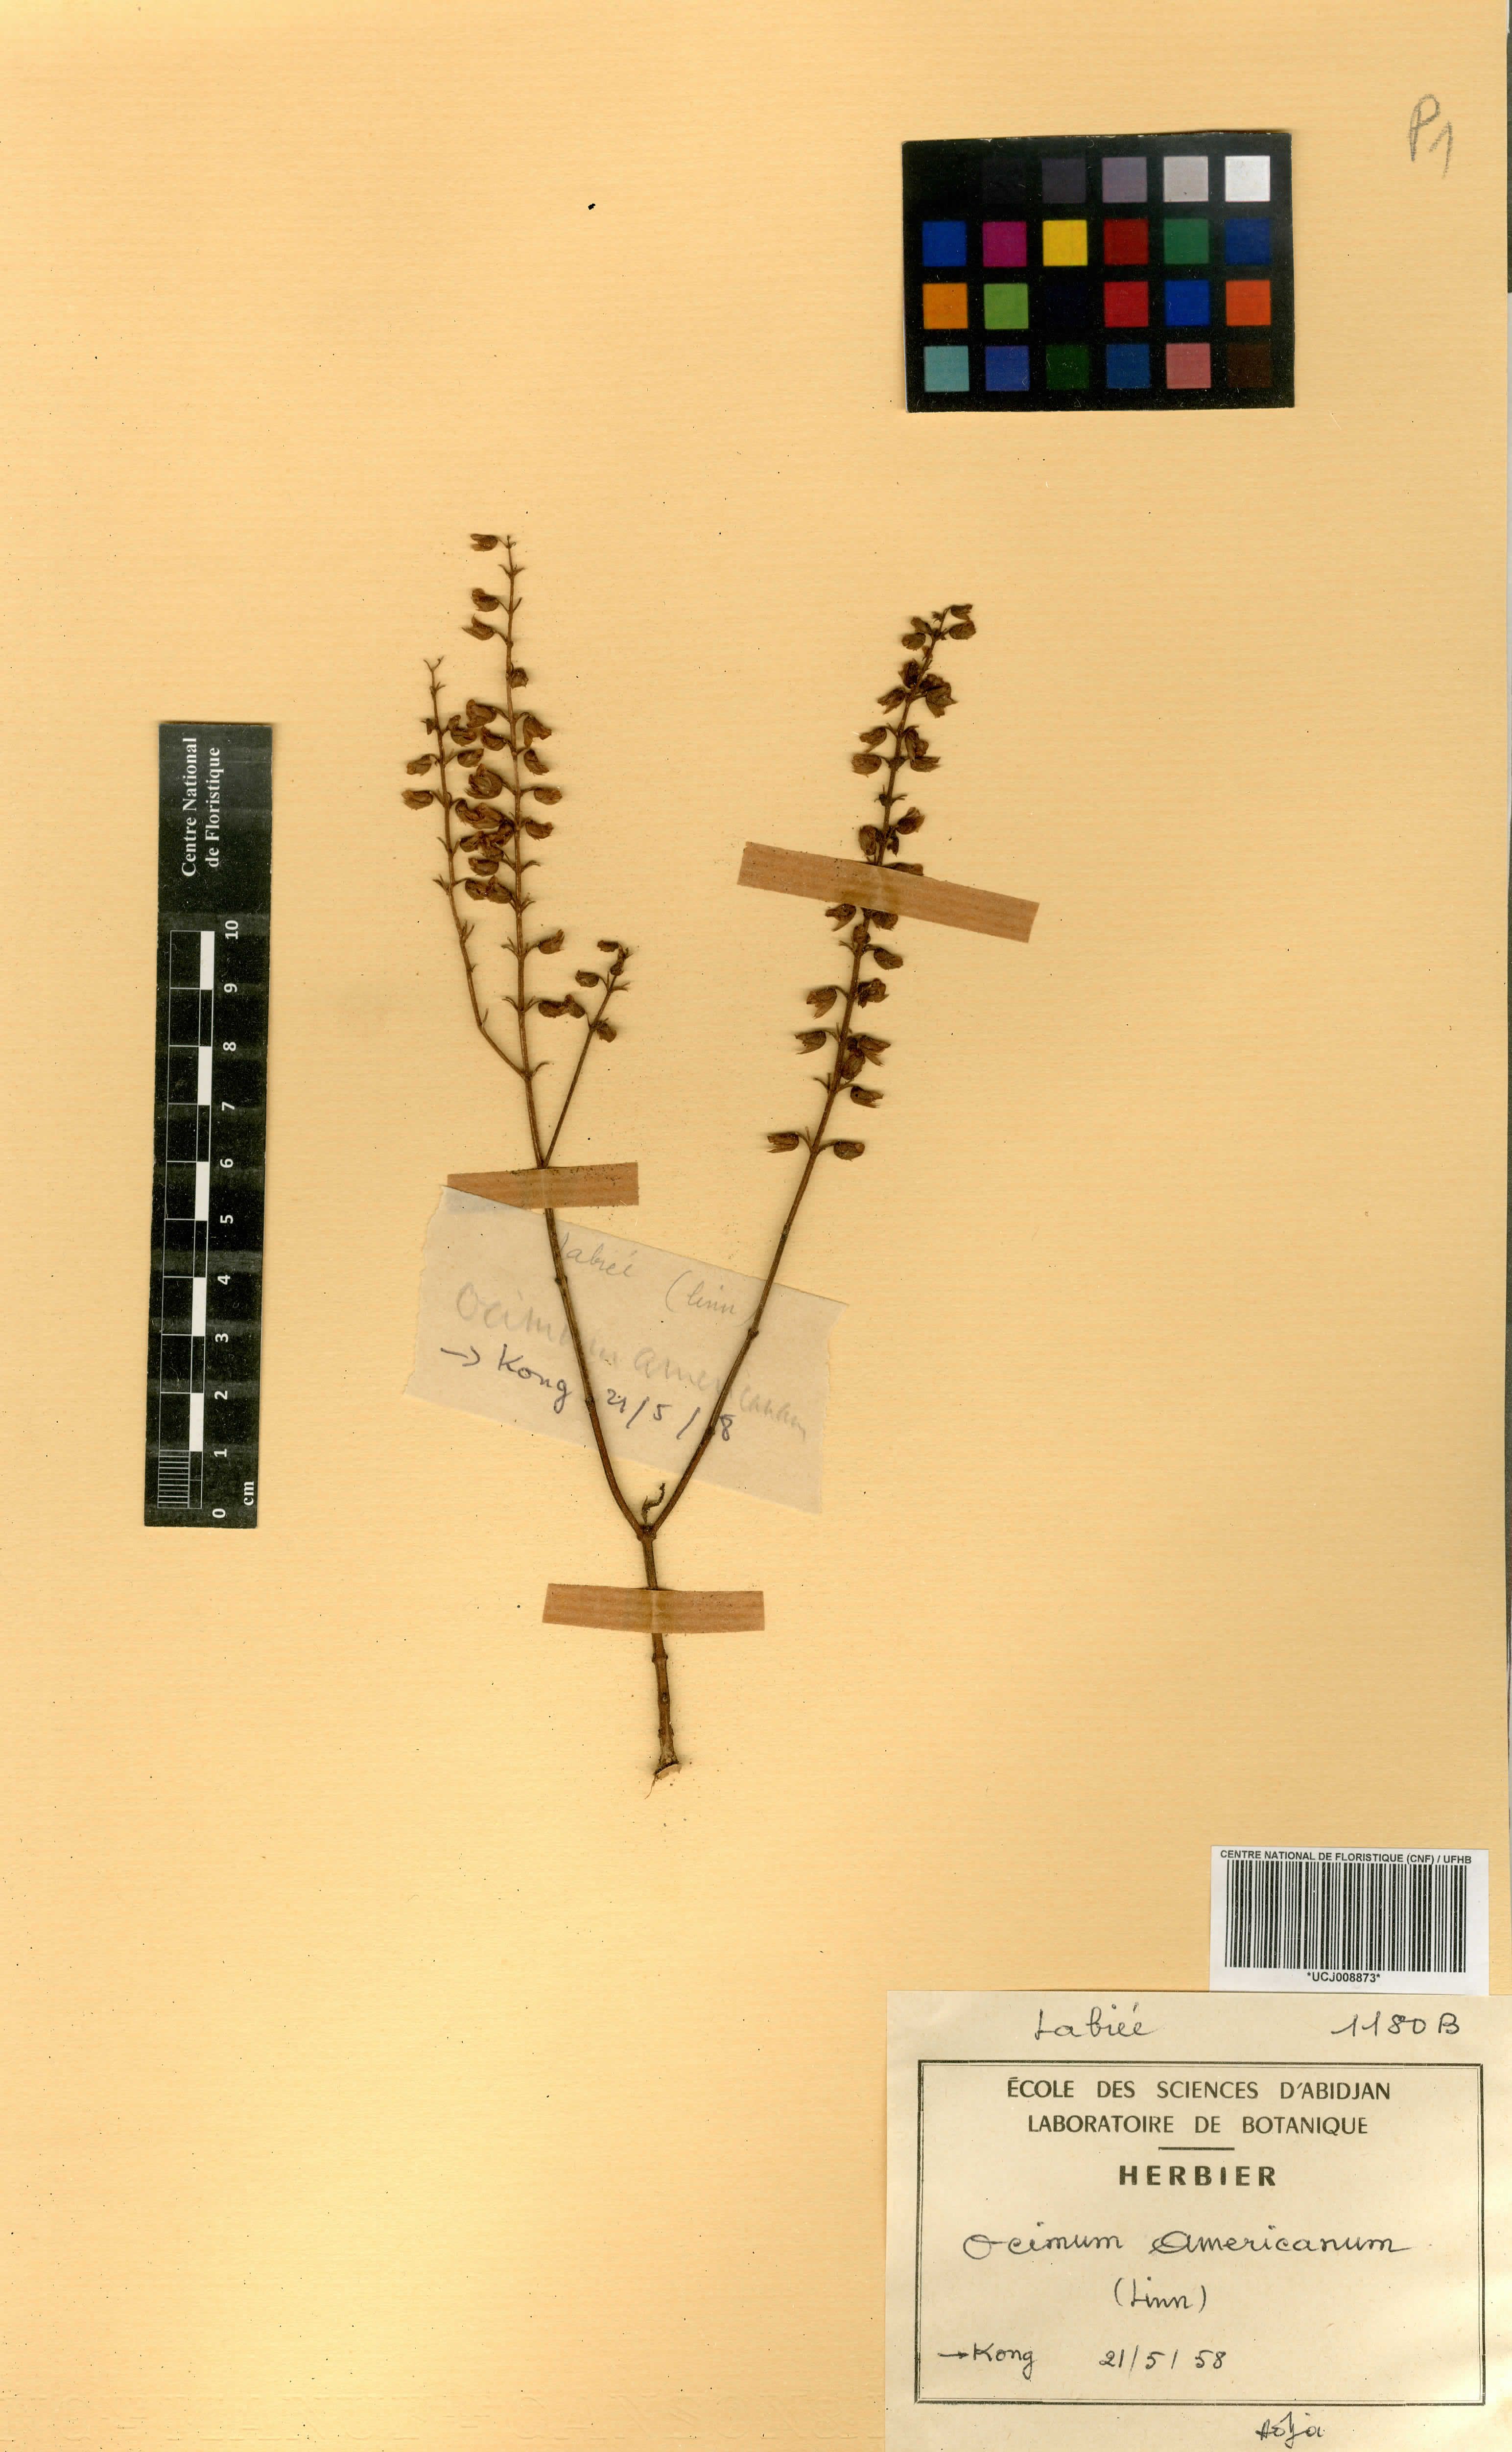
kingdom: Plantae
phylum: Tracheophyta
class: Magnoliopsida
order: Lamiales
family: Lamiaceae
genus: Ocimum
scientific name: Ocimum americanum
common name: American basil
